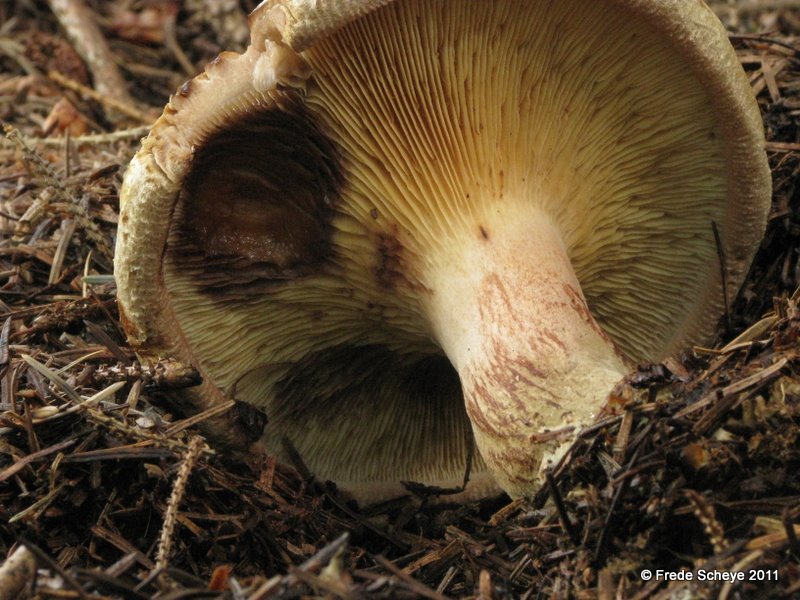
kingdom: Fungi
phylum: Basidiomycota
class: Agaricomycetes
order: Boletales
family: Paxillaceae
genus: Paxillus
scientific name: Paxillus involutus
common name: almindelig netbladhat
